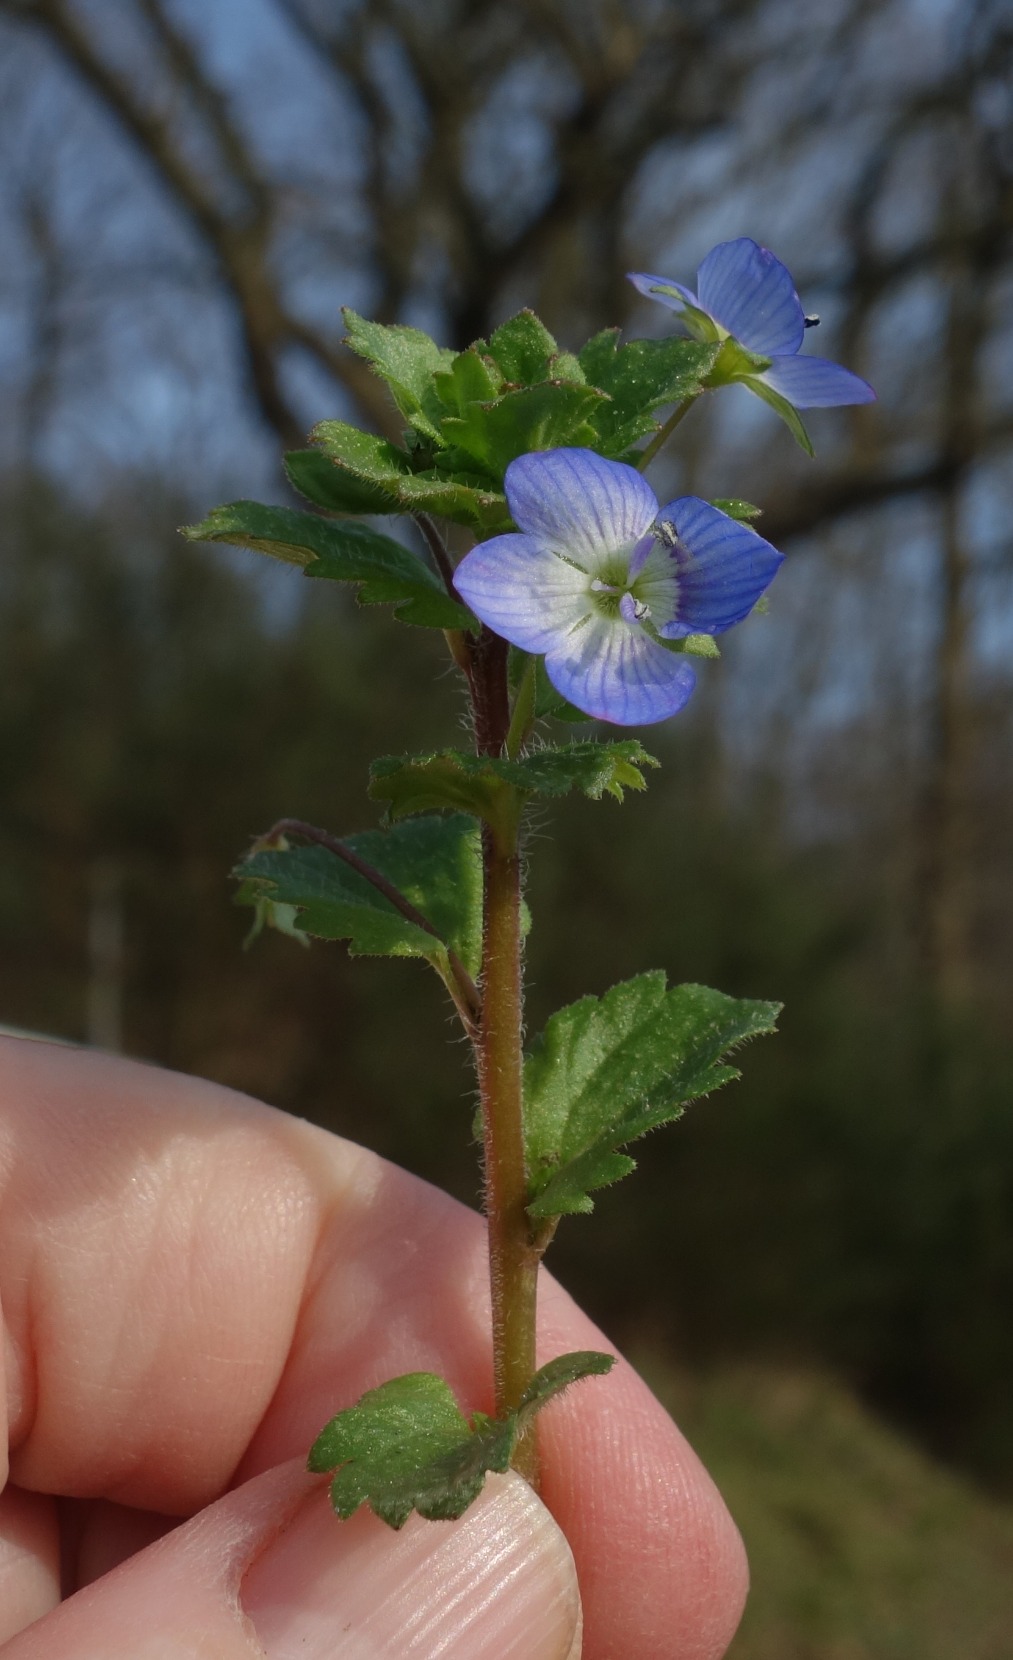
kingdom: Plantae
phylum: Tracheophyta
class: Magnoliopsida
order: Lamiales
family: Plantaginaceae
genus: Veronica
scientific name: Veronica persica
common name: Storkronet ærenpris
